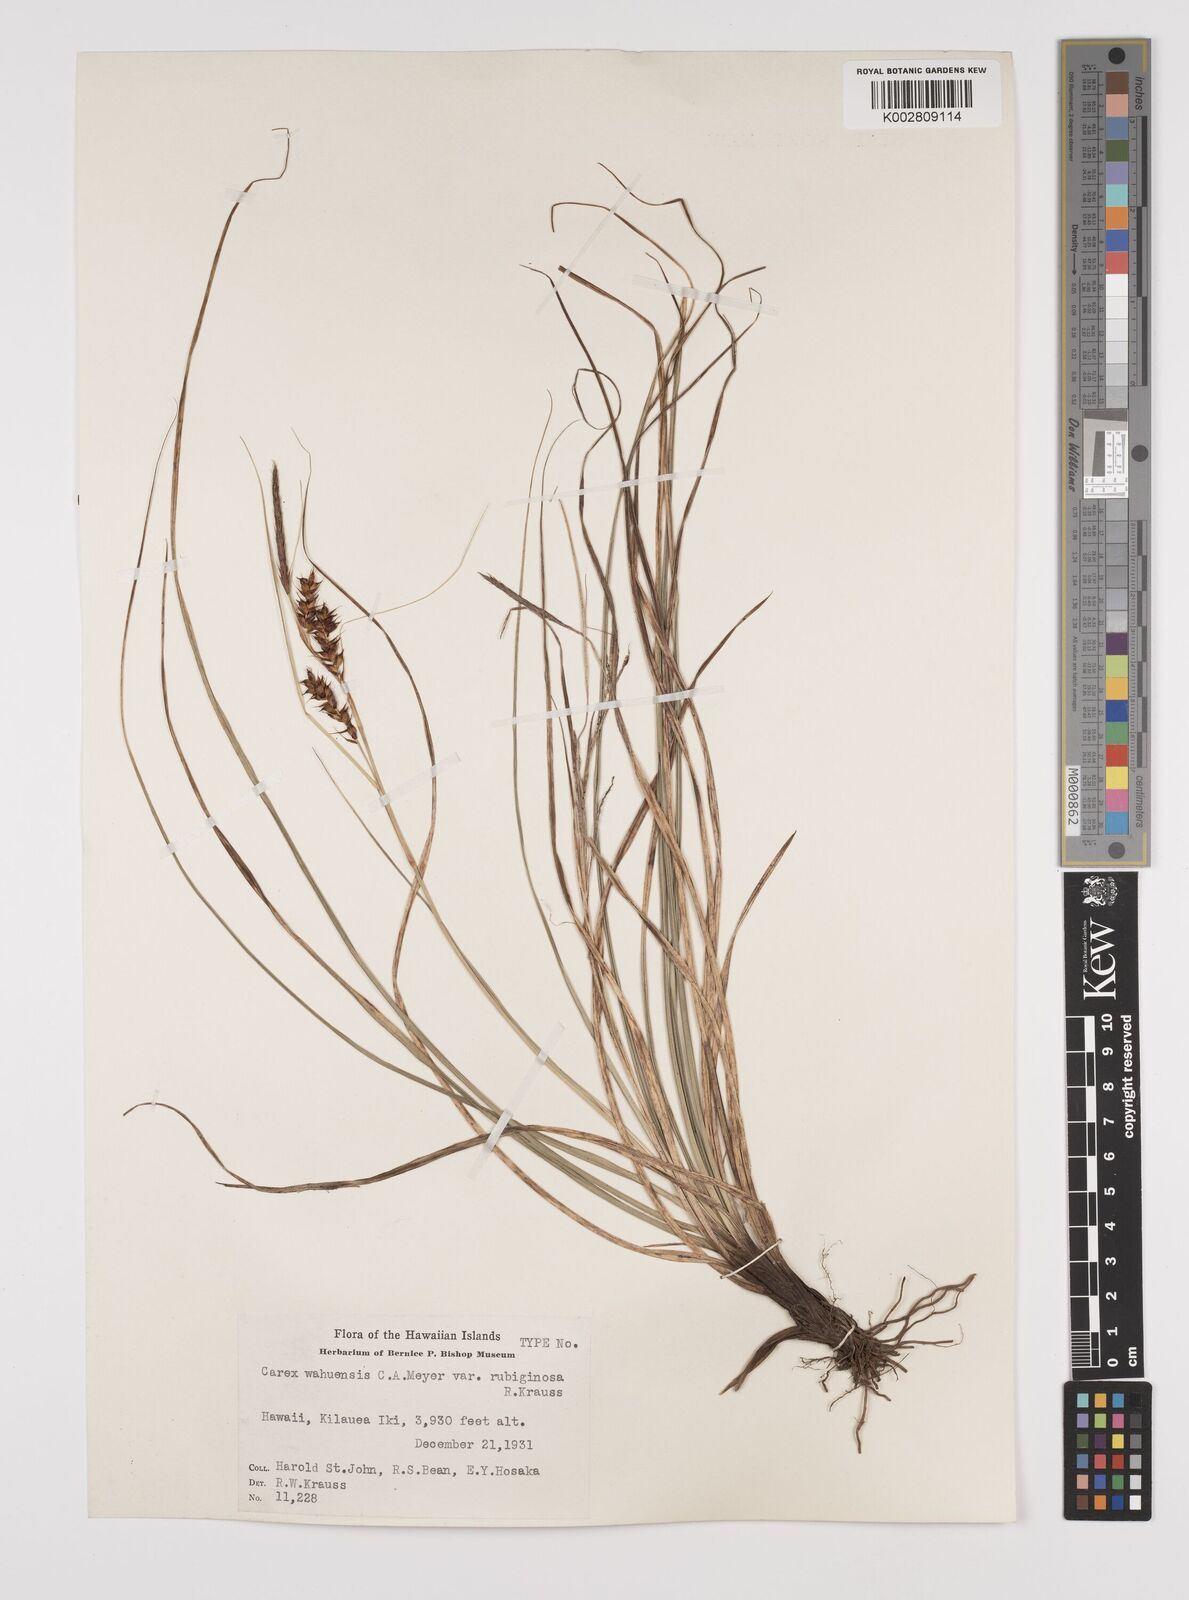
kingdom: Plantae
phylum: Tracheophyta
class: Liliopsida
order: Poales
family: Cyperaceae
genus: Carex
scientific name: Carex wahuensis
